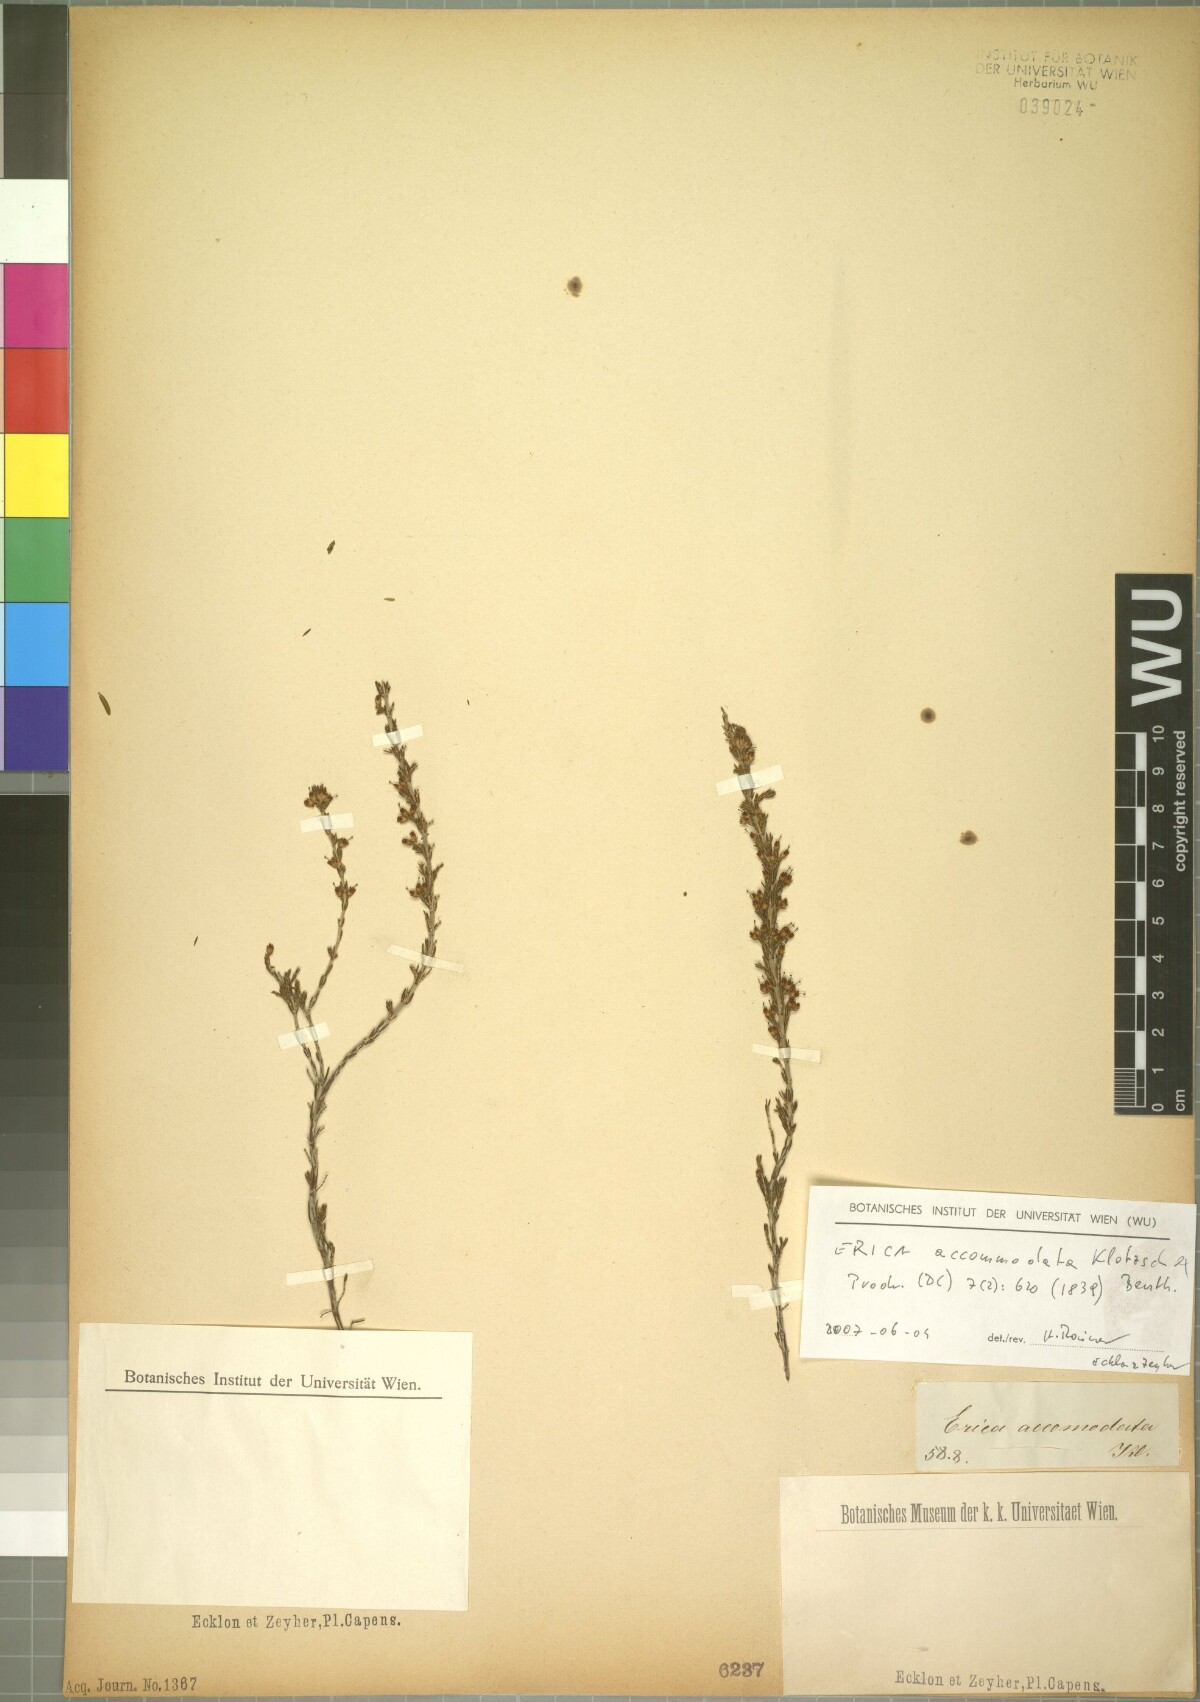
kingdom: Plantae
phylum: Tracheophyta
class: Magnoliopsida
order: Ericales
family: Ericaceae
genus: Erica
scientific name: Erica accommodata
